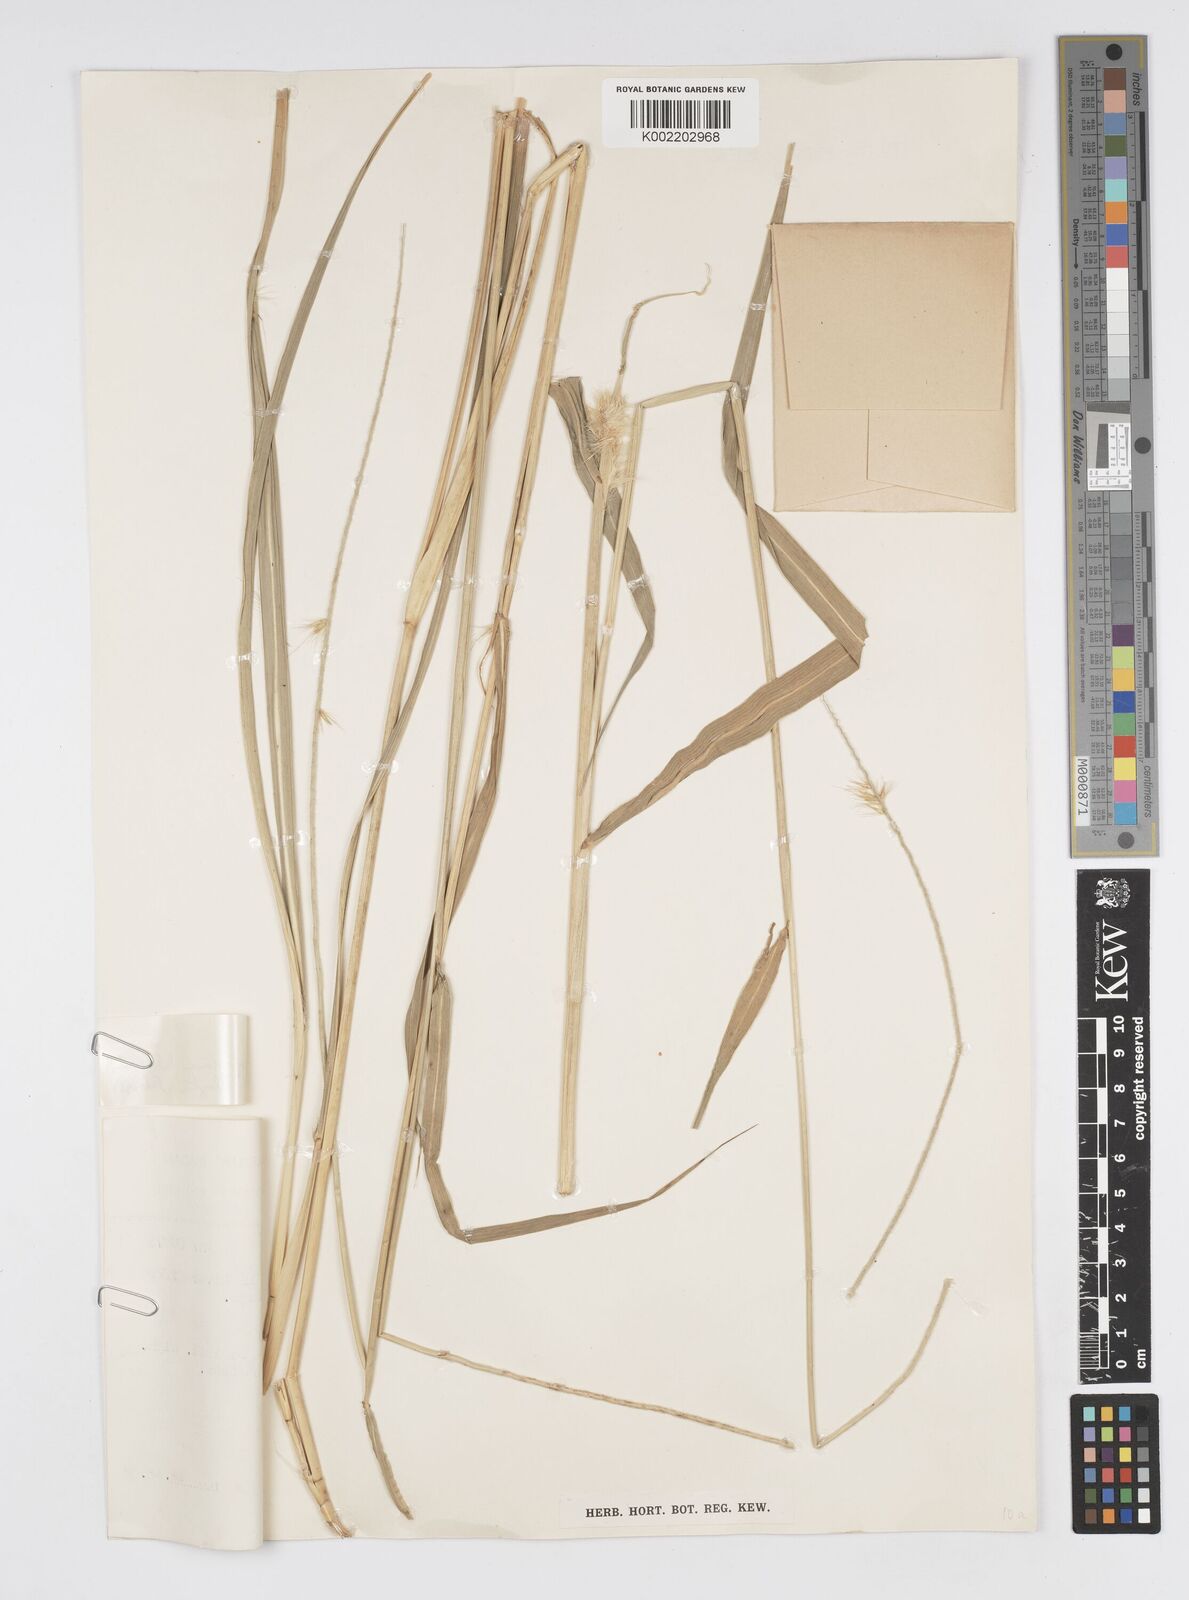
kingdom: Plantae
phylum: Tracheophyta
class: Liliopsida
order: Poales
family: Poaceae
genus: Cenchrus
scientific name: Cenchrus purpureus
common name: Elephant grass
